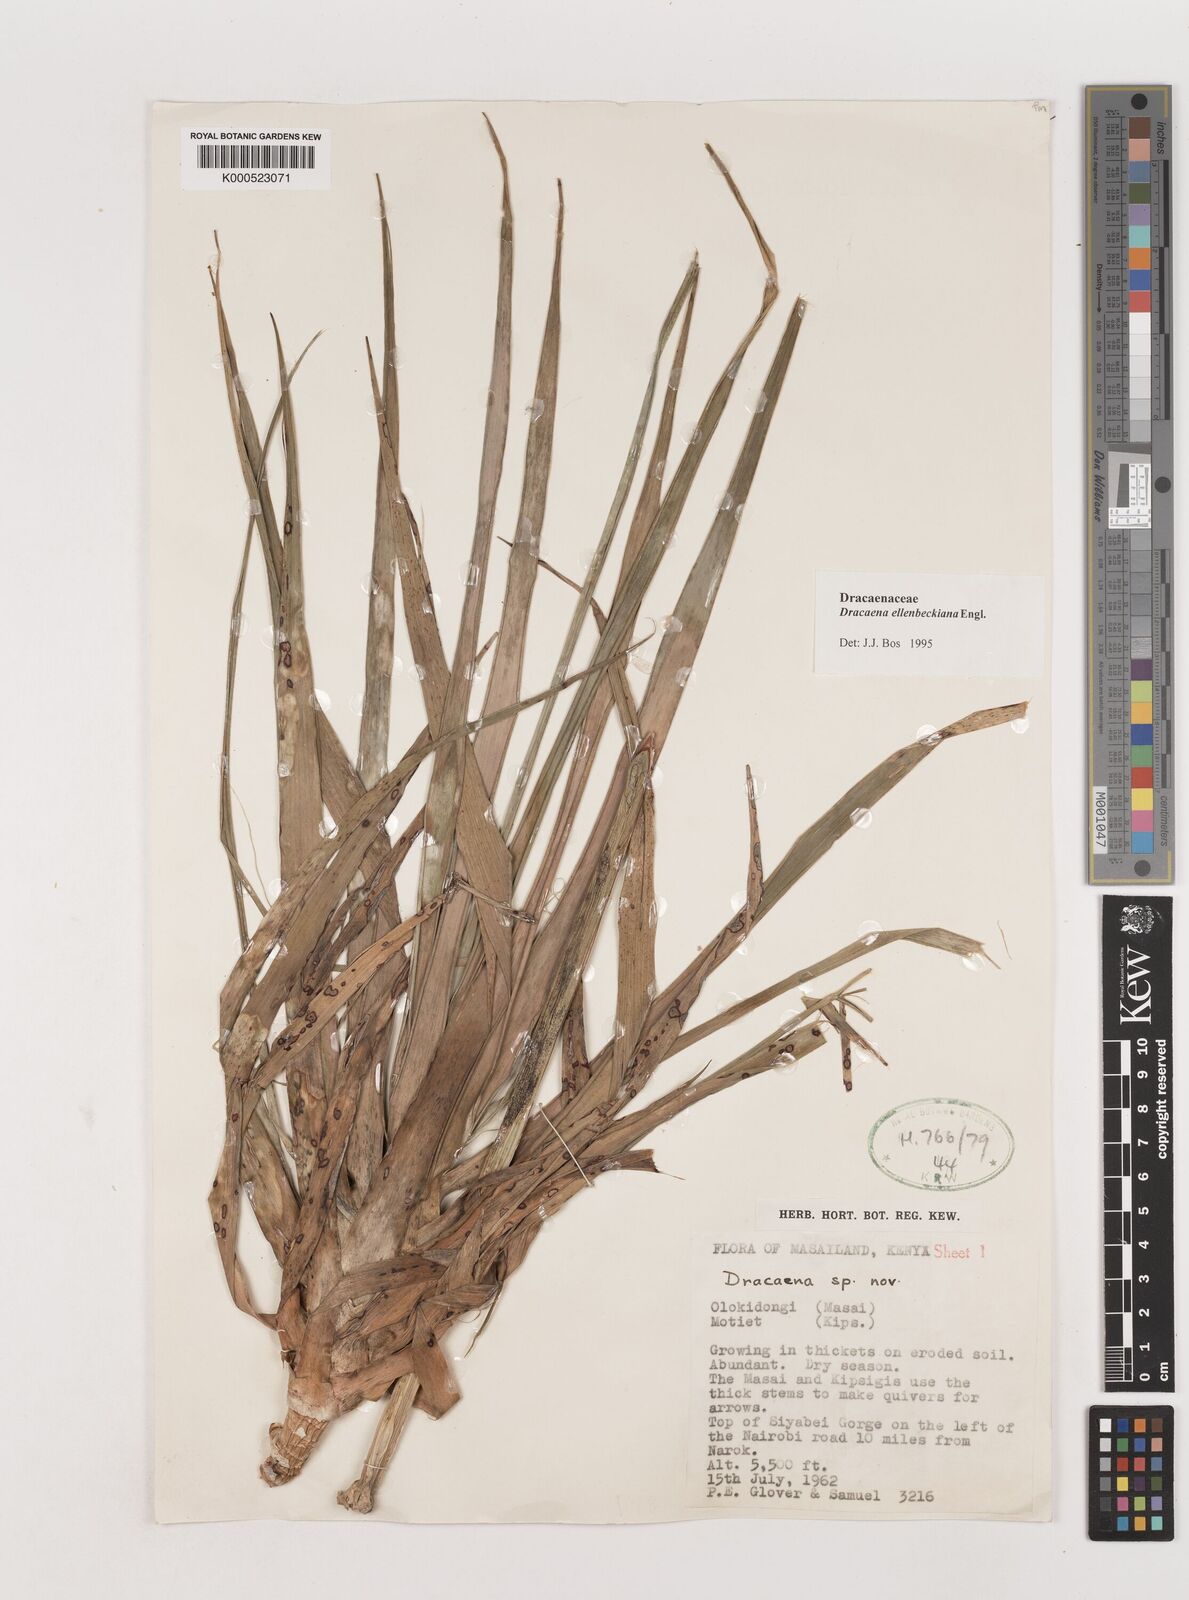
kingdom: Plantae
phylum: Tracheophyta
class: Liliopsida
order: Asparagales
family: Asparagaceae
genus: Dracaena
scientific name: Dracaena ellenbeckiana
